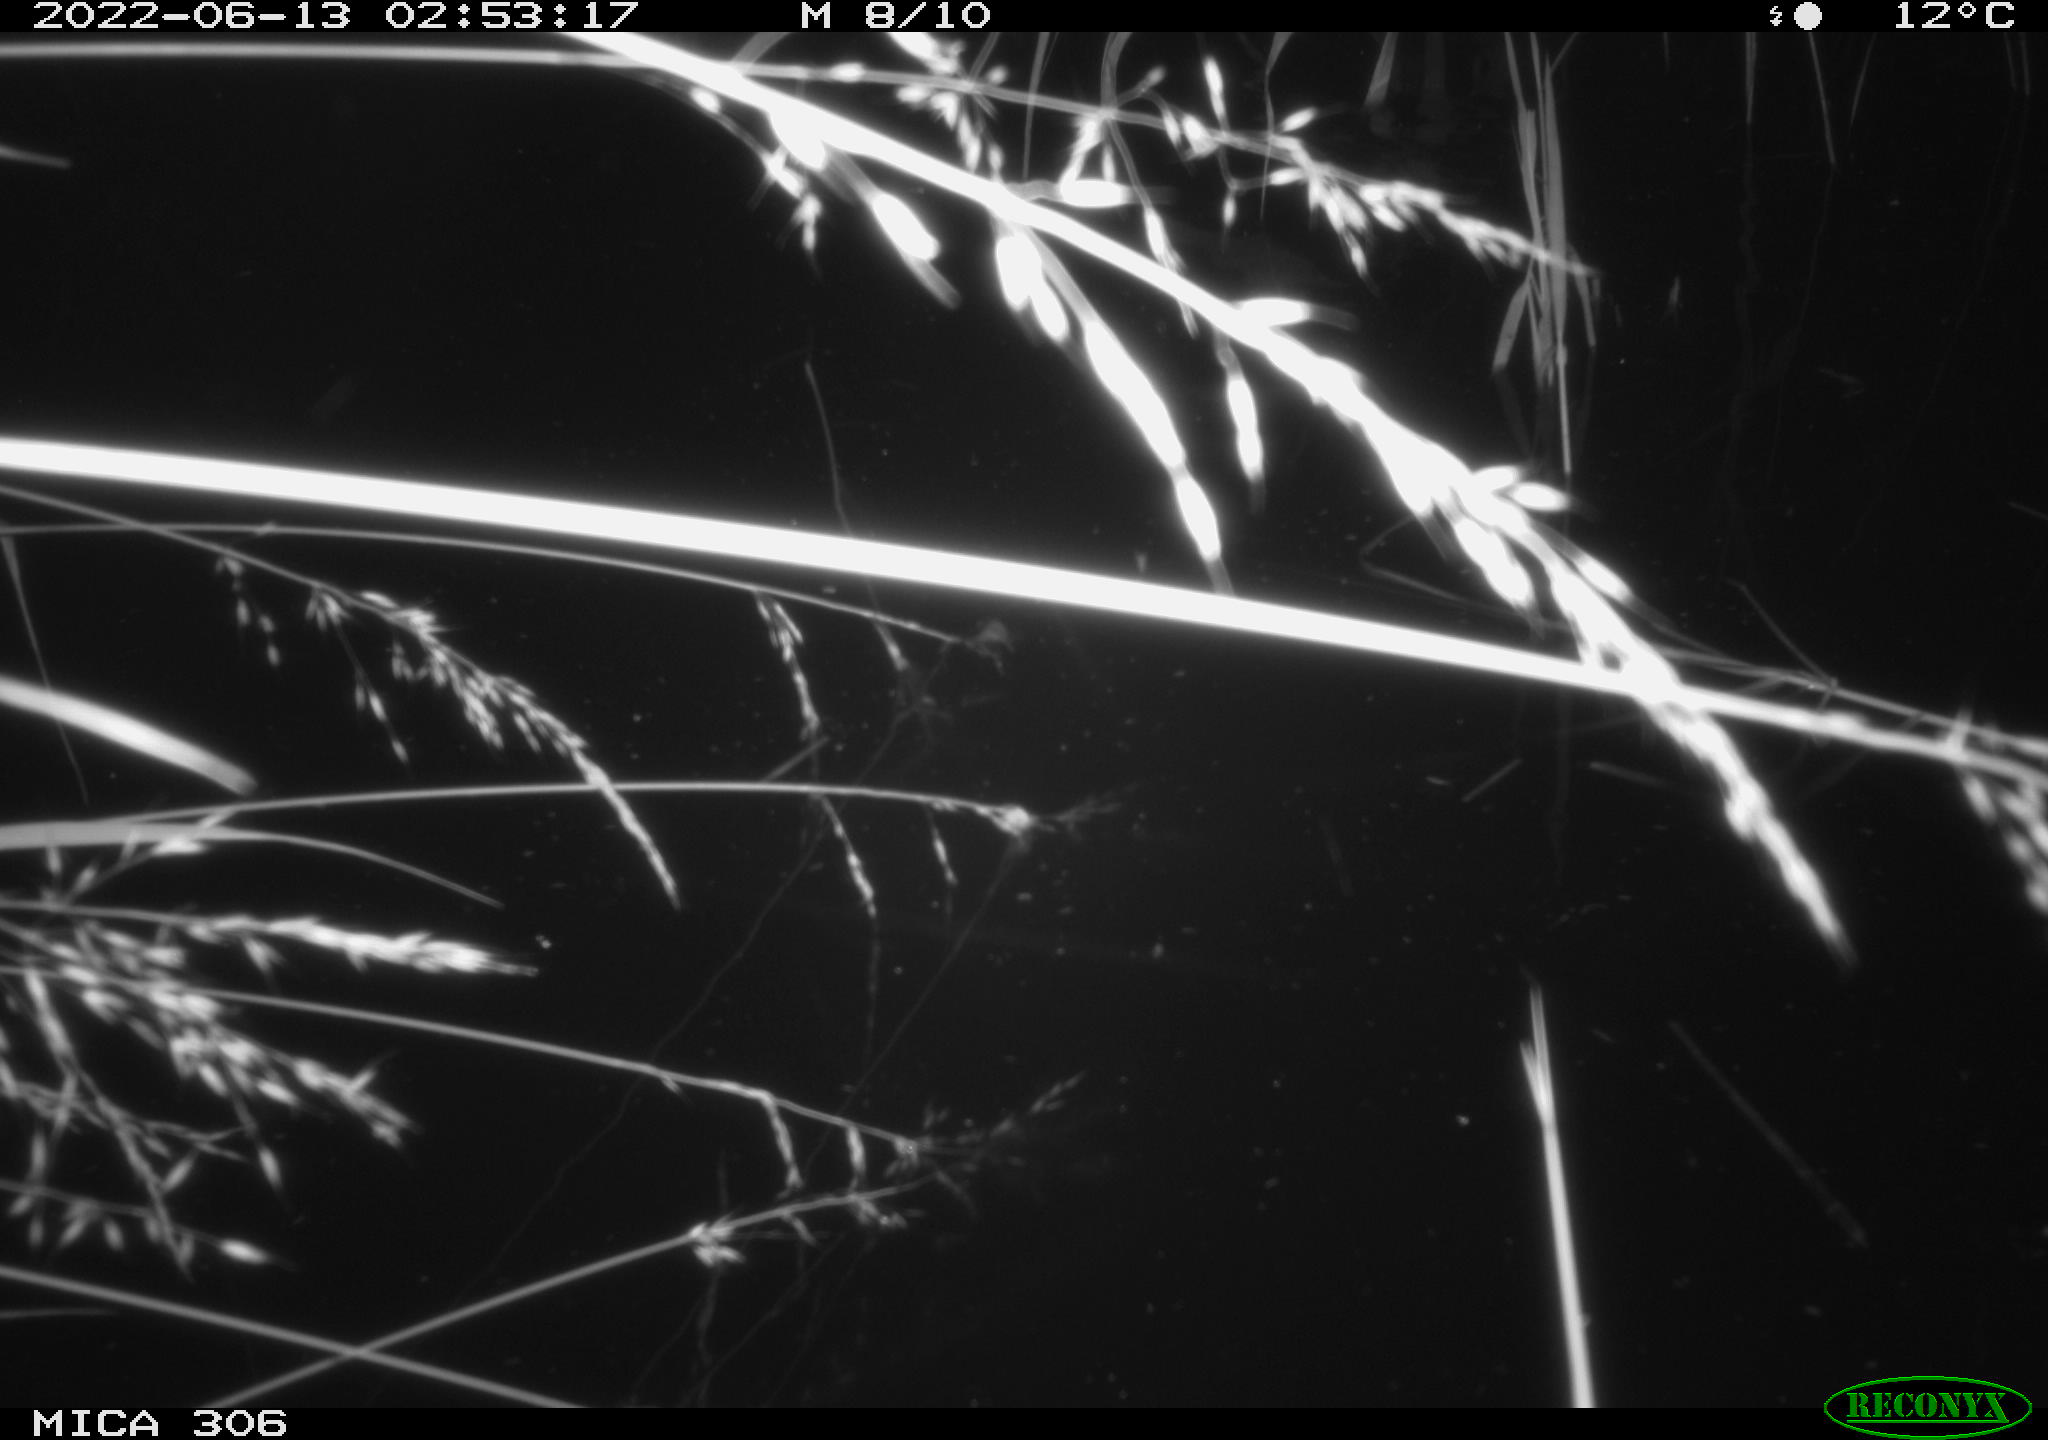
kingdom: Animalia
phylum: Chordata
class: Aves
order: Anseriformes
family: Anatidae
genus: Anas
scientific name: Anas platyrhynchos
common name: Mallard
